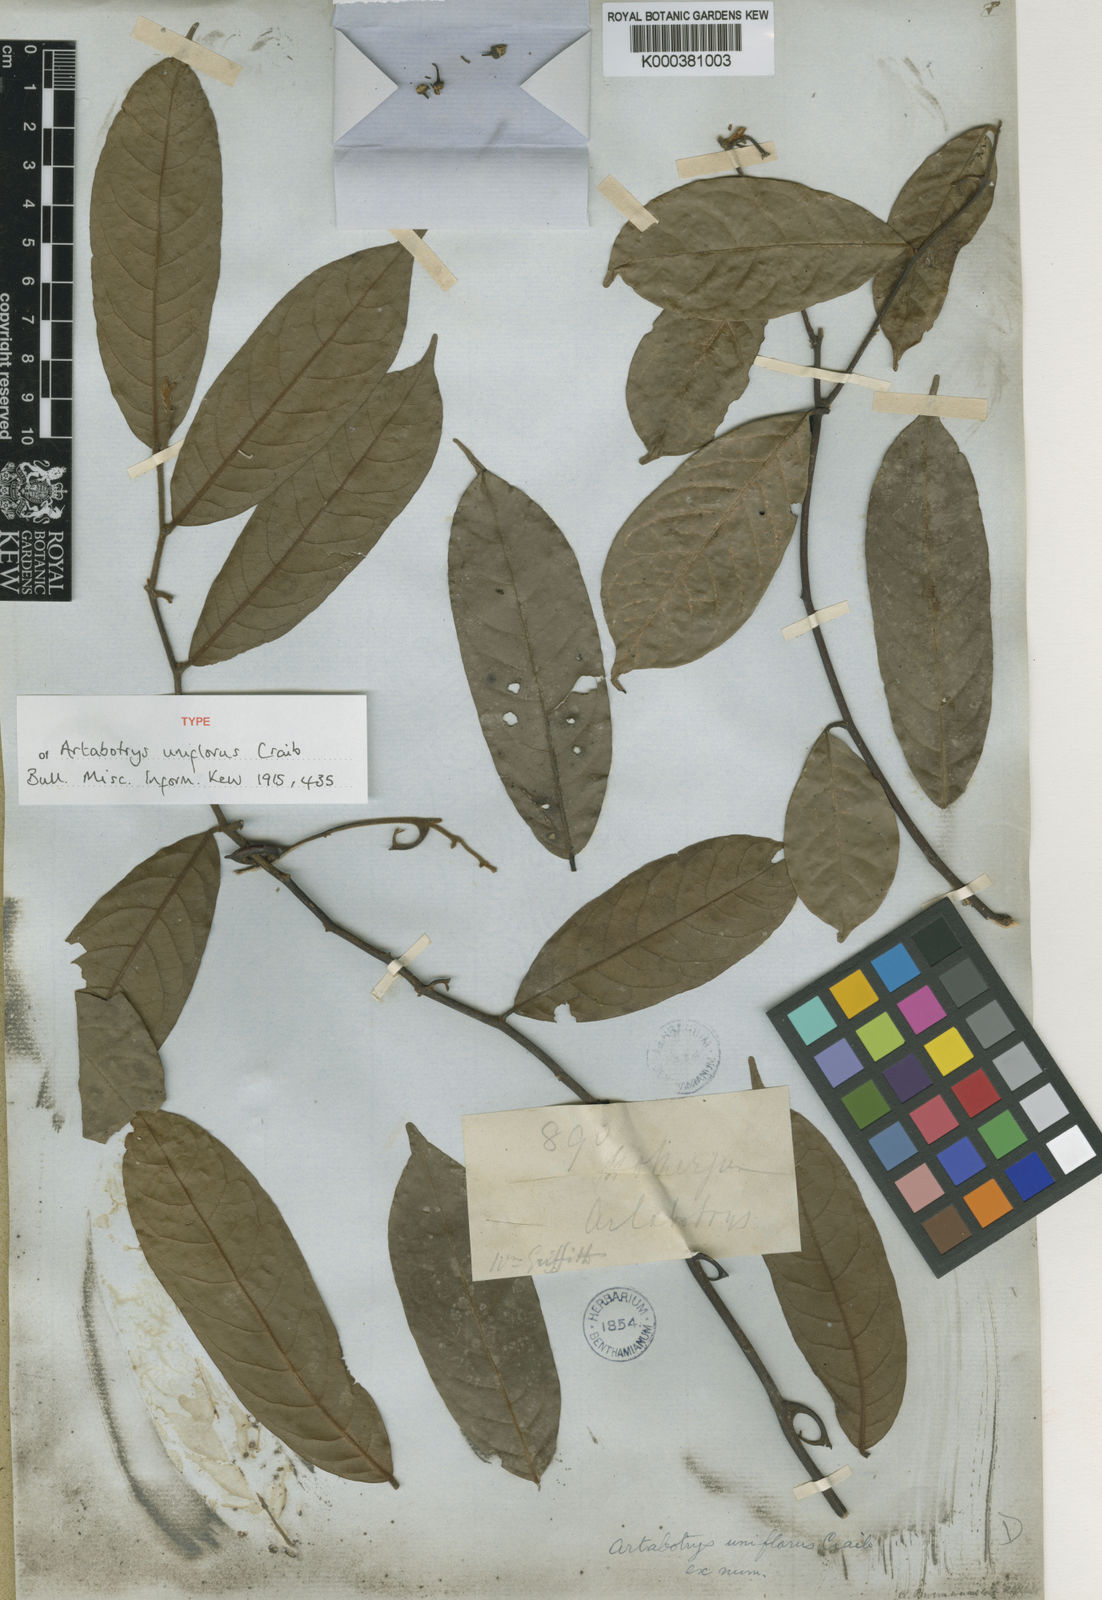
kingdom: Plantae
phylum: Tracheophyta
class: Magnoliopsida
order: Magnoliales
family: Annonaceae
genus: Artabotrys
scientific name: Artabotrys uniflorus
